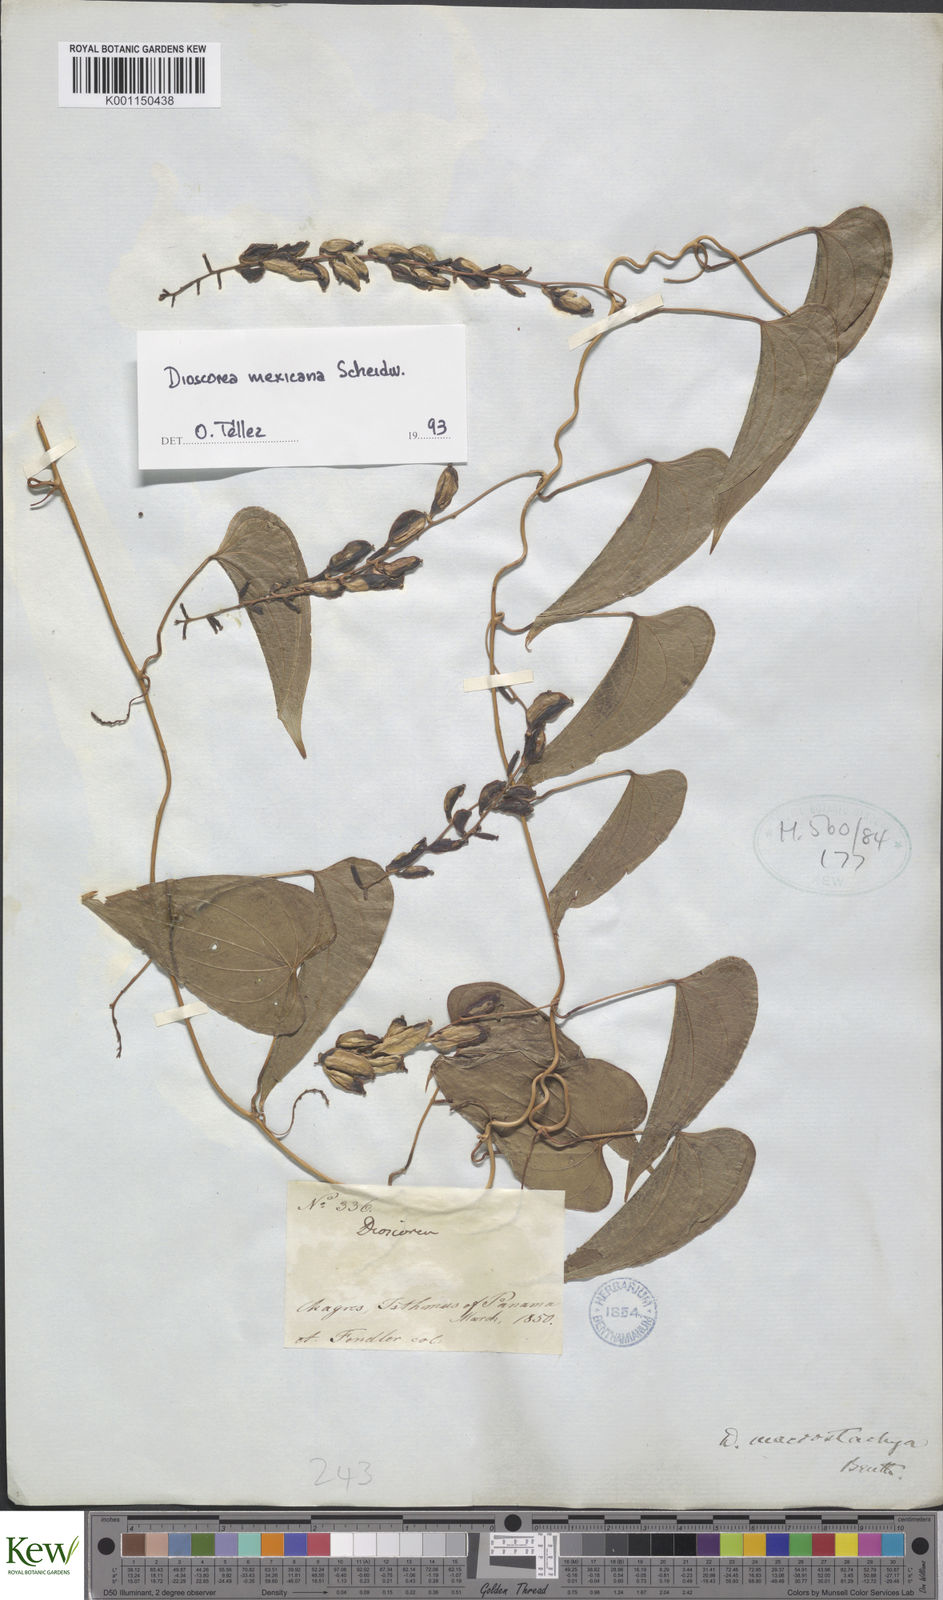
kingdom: Plantae
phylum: Tracheophyta
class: Liliopsida
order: Dioscoreales
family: Dioscoreaceae
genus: Dioscorea
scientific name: Dioscorea mexicana
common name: Mexican yam
